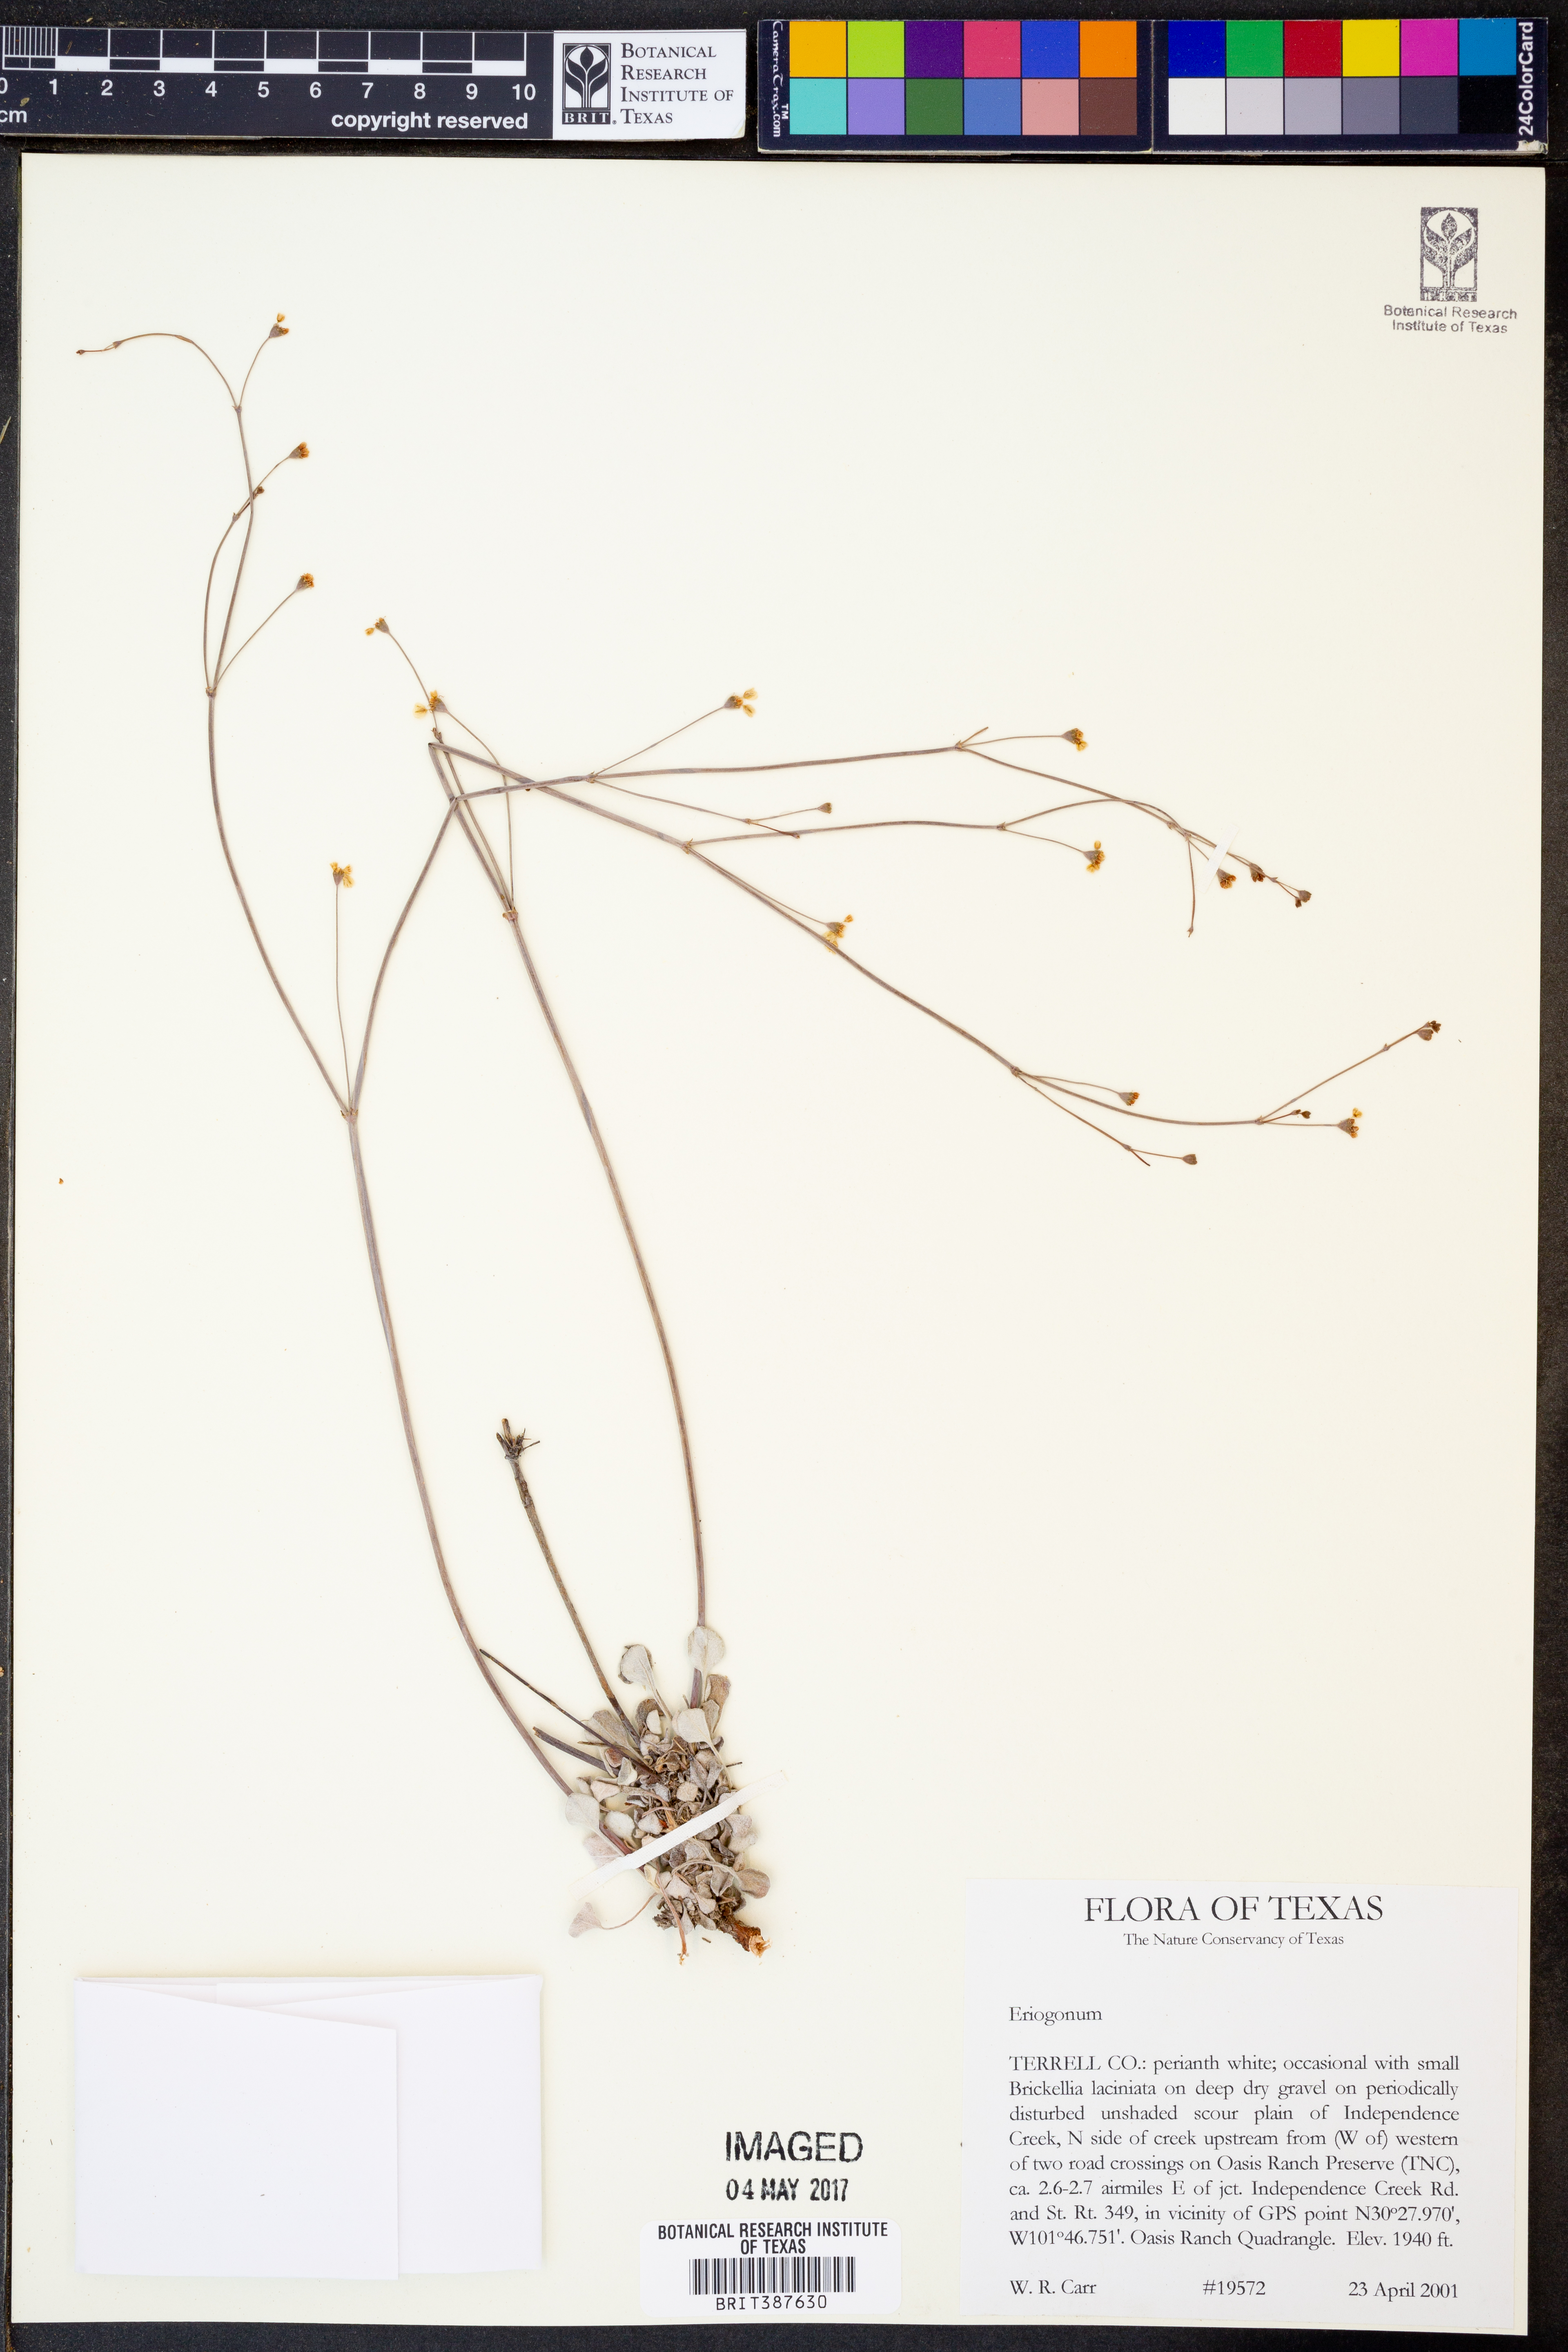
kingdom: Plantae
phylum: Tracheophyta
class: Magnoliopsida
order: Caryophyllales
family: Polygonaceae
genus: Eriogonum
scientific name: Eriogonum
